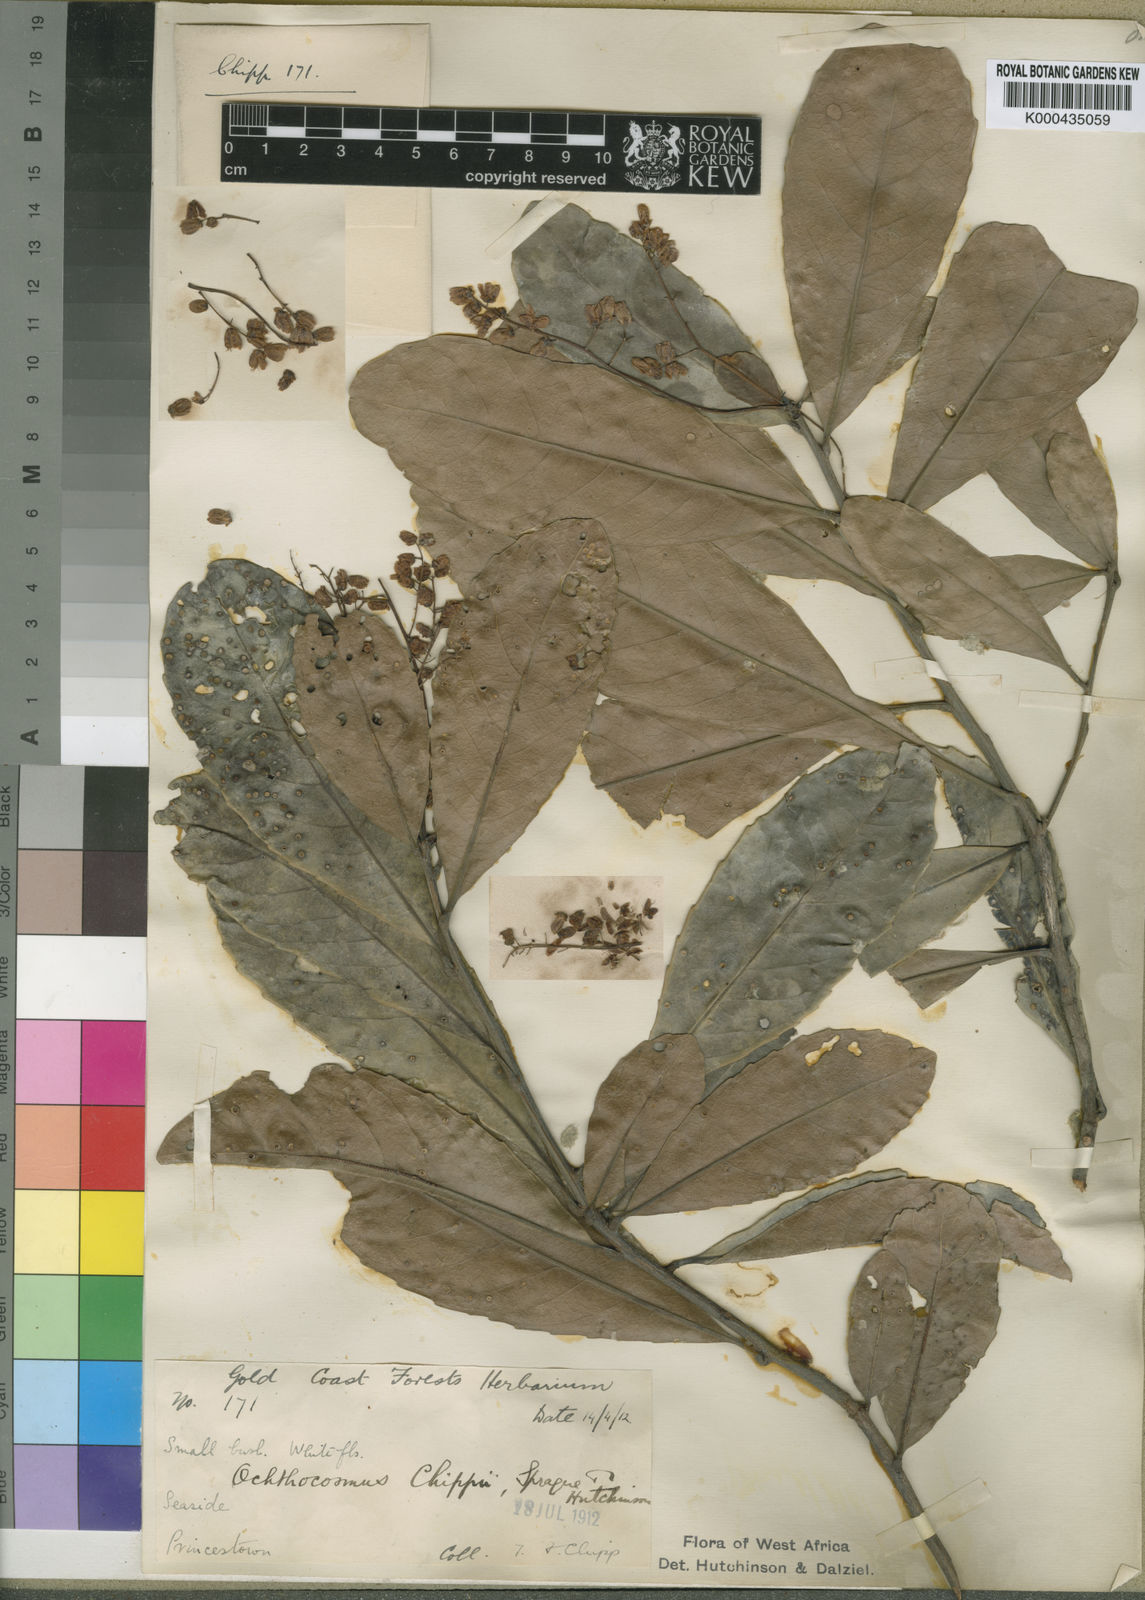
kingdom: Plantae
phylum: Tracheophyta
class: Magnoliopsida
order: Malpighiales
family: Ixonanthaceae
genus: Phyllocosmus
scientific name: Phyllocosmus sessiliflorus
